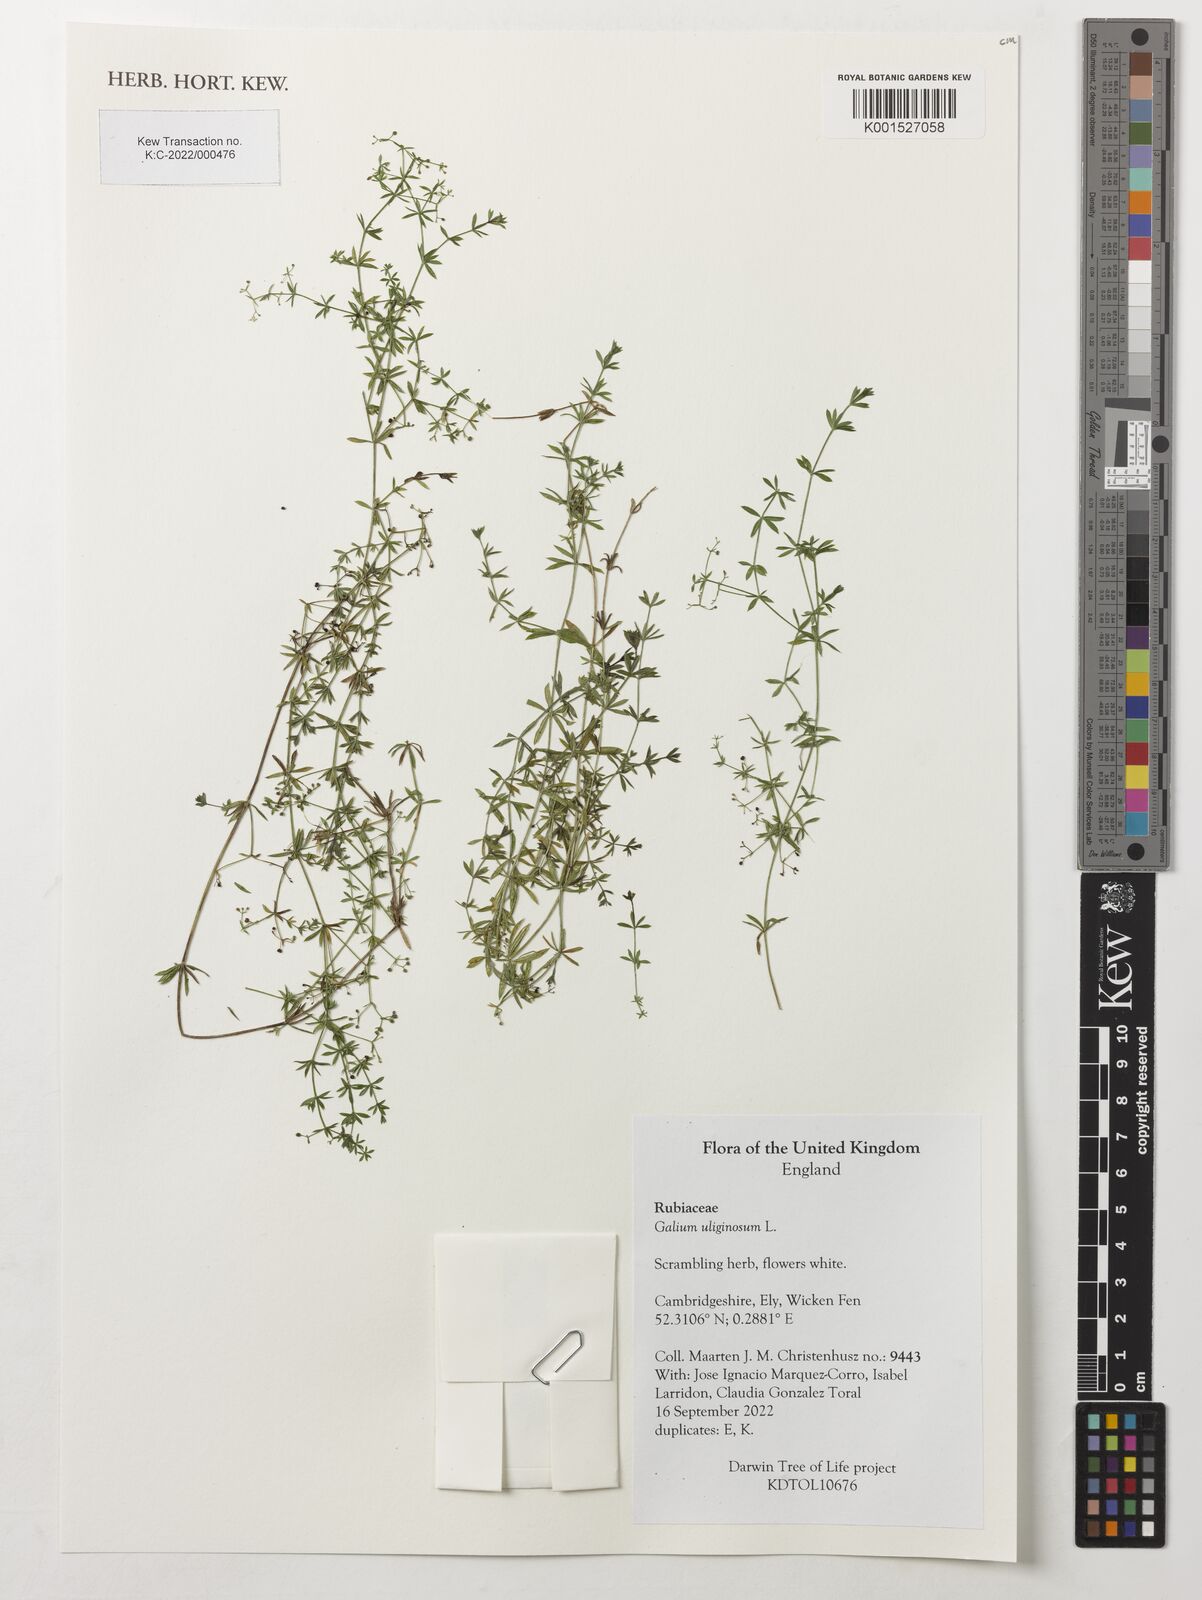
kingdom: Plantae
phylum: Tracheophyta
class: Magnoliopsida
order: Gentianales
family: Rubiaceae
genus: Galium
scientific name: Galium uliginosum
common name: Fen bedstraw
